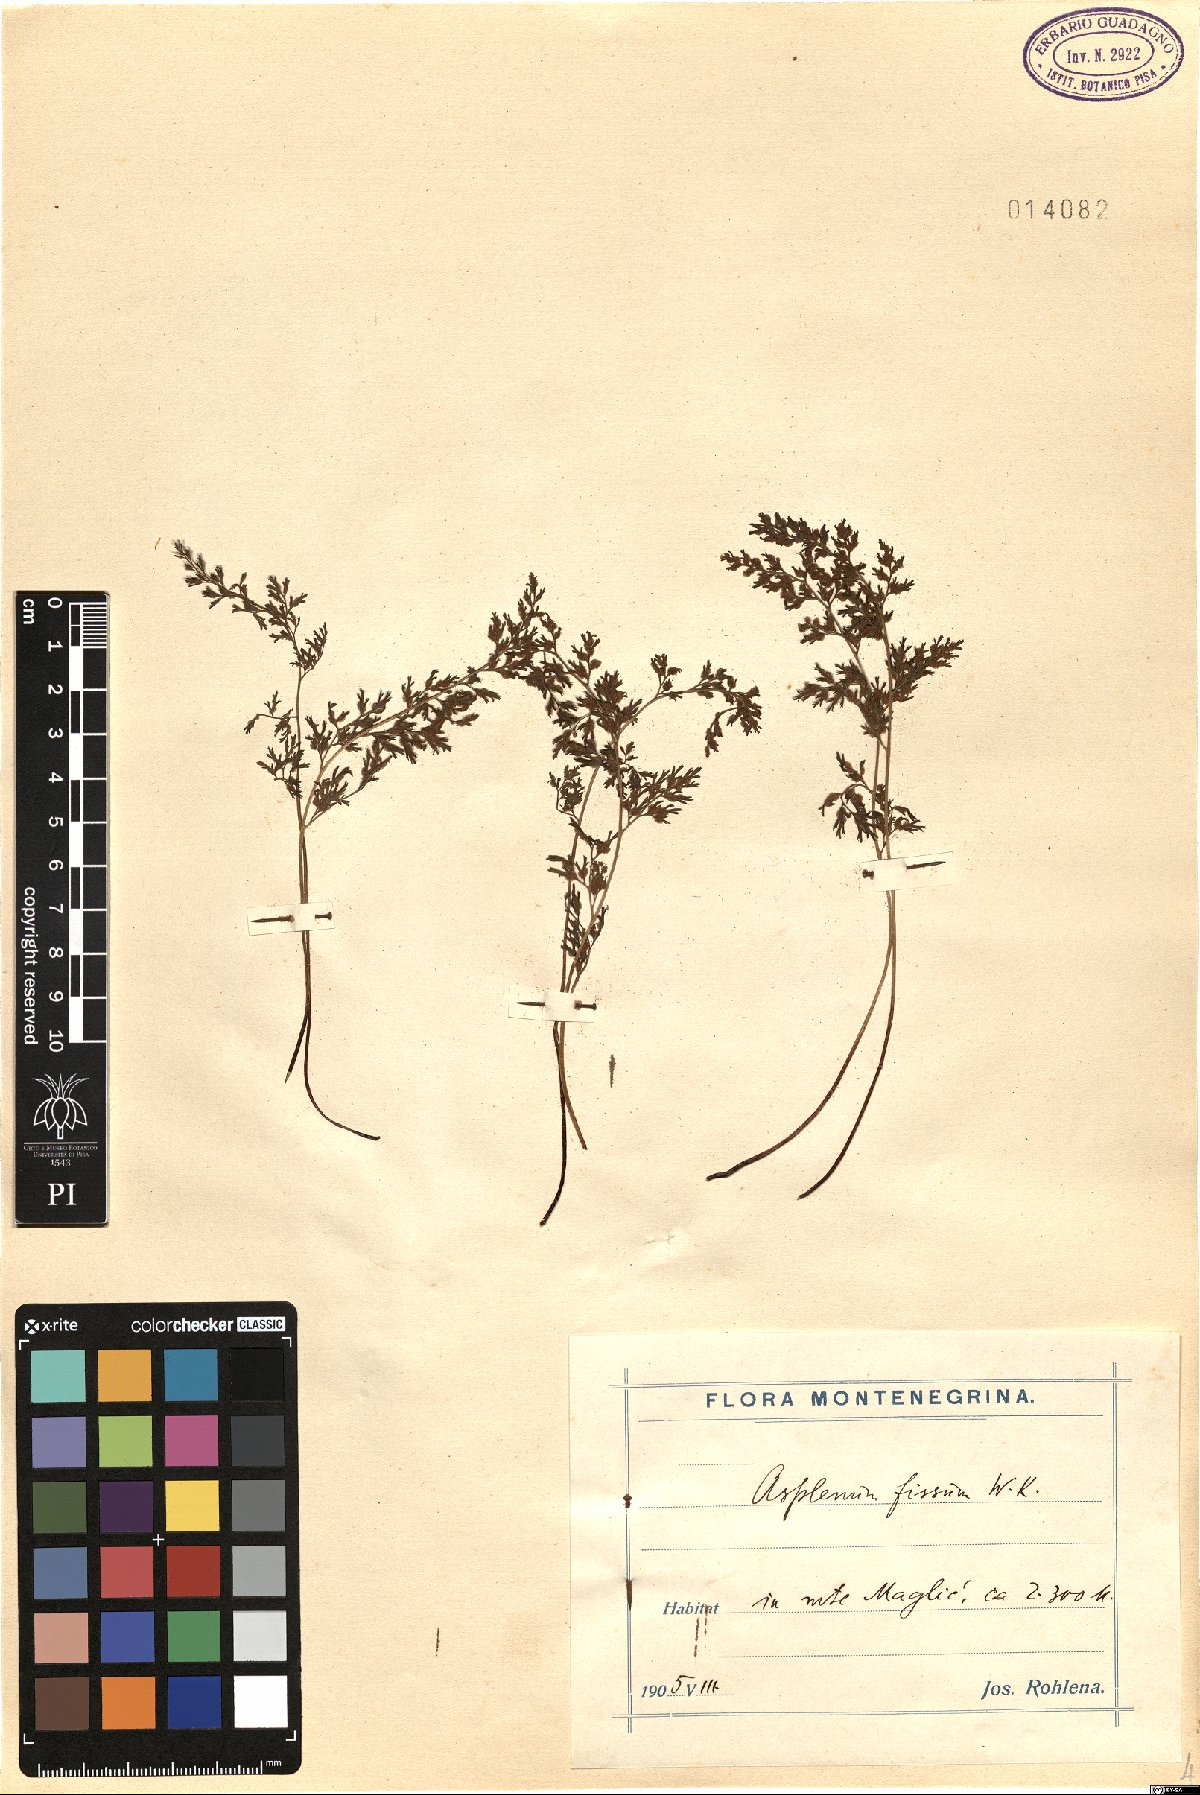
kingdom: Plantae
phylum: Tracheophyta
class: Polypodiopsida
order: Polypodiales
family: Aspleniaceae
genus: Asplenium
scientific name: Asplenium fissum
